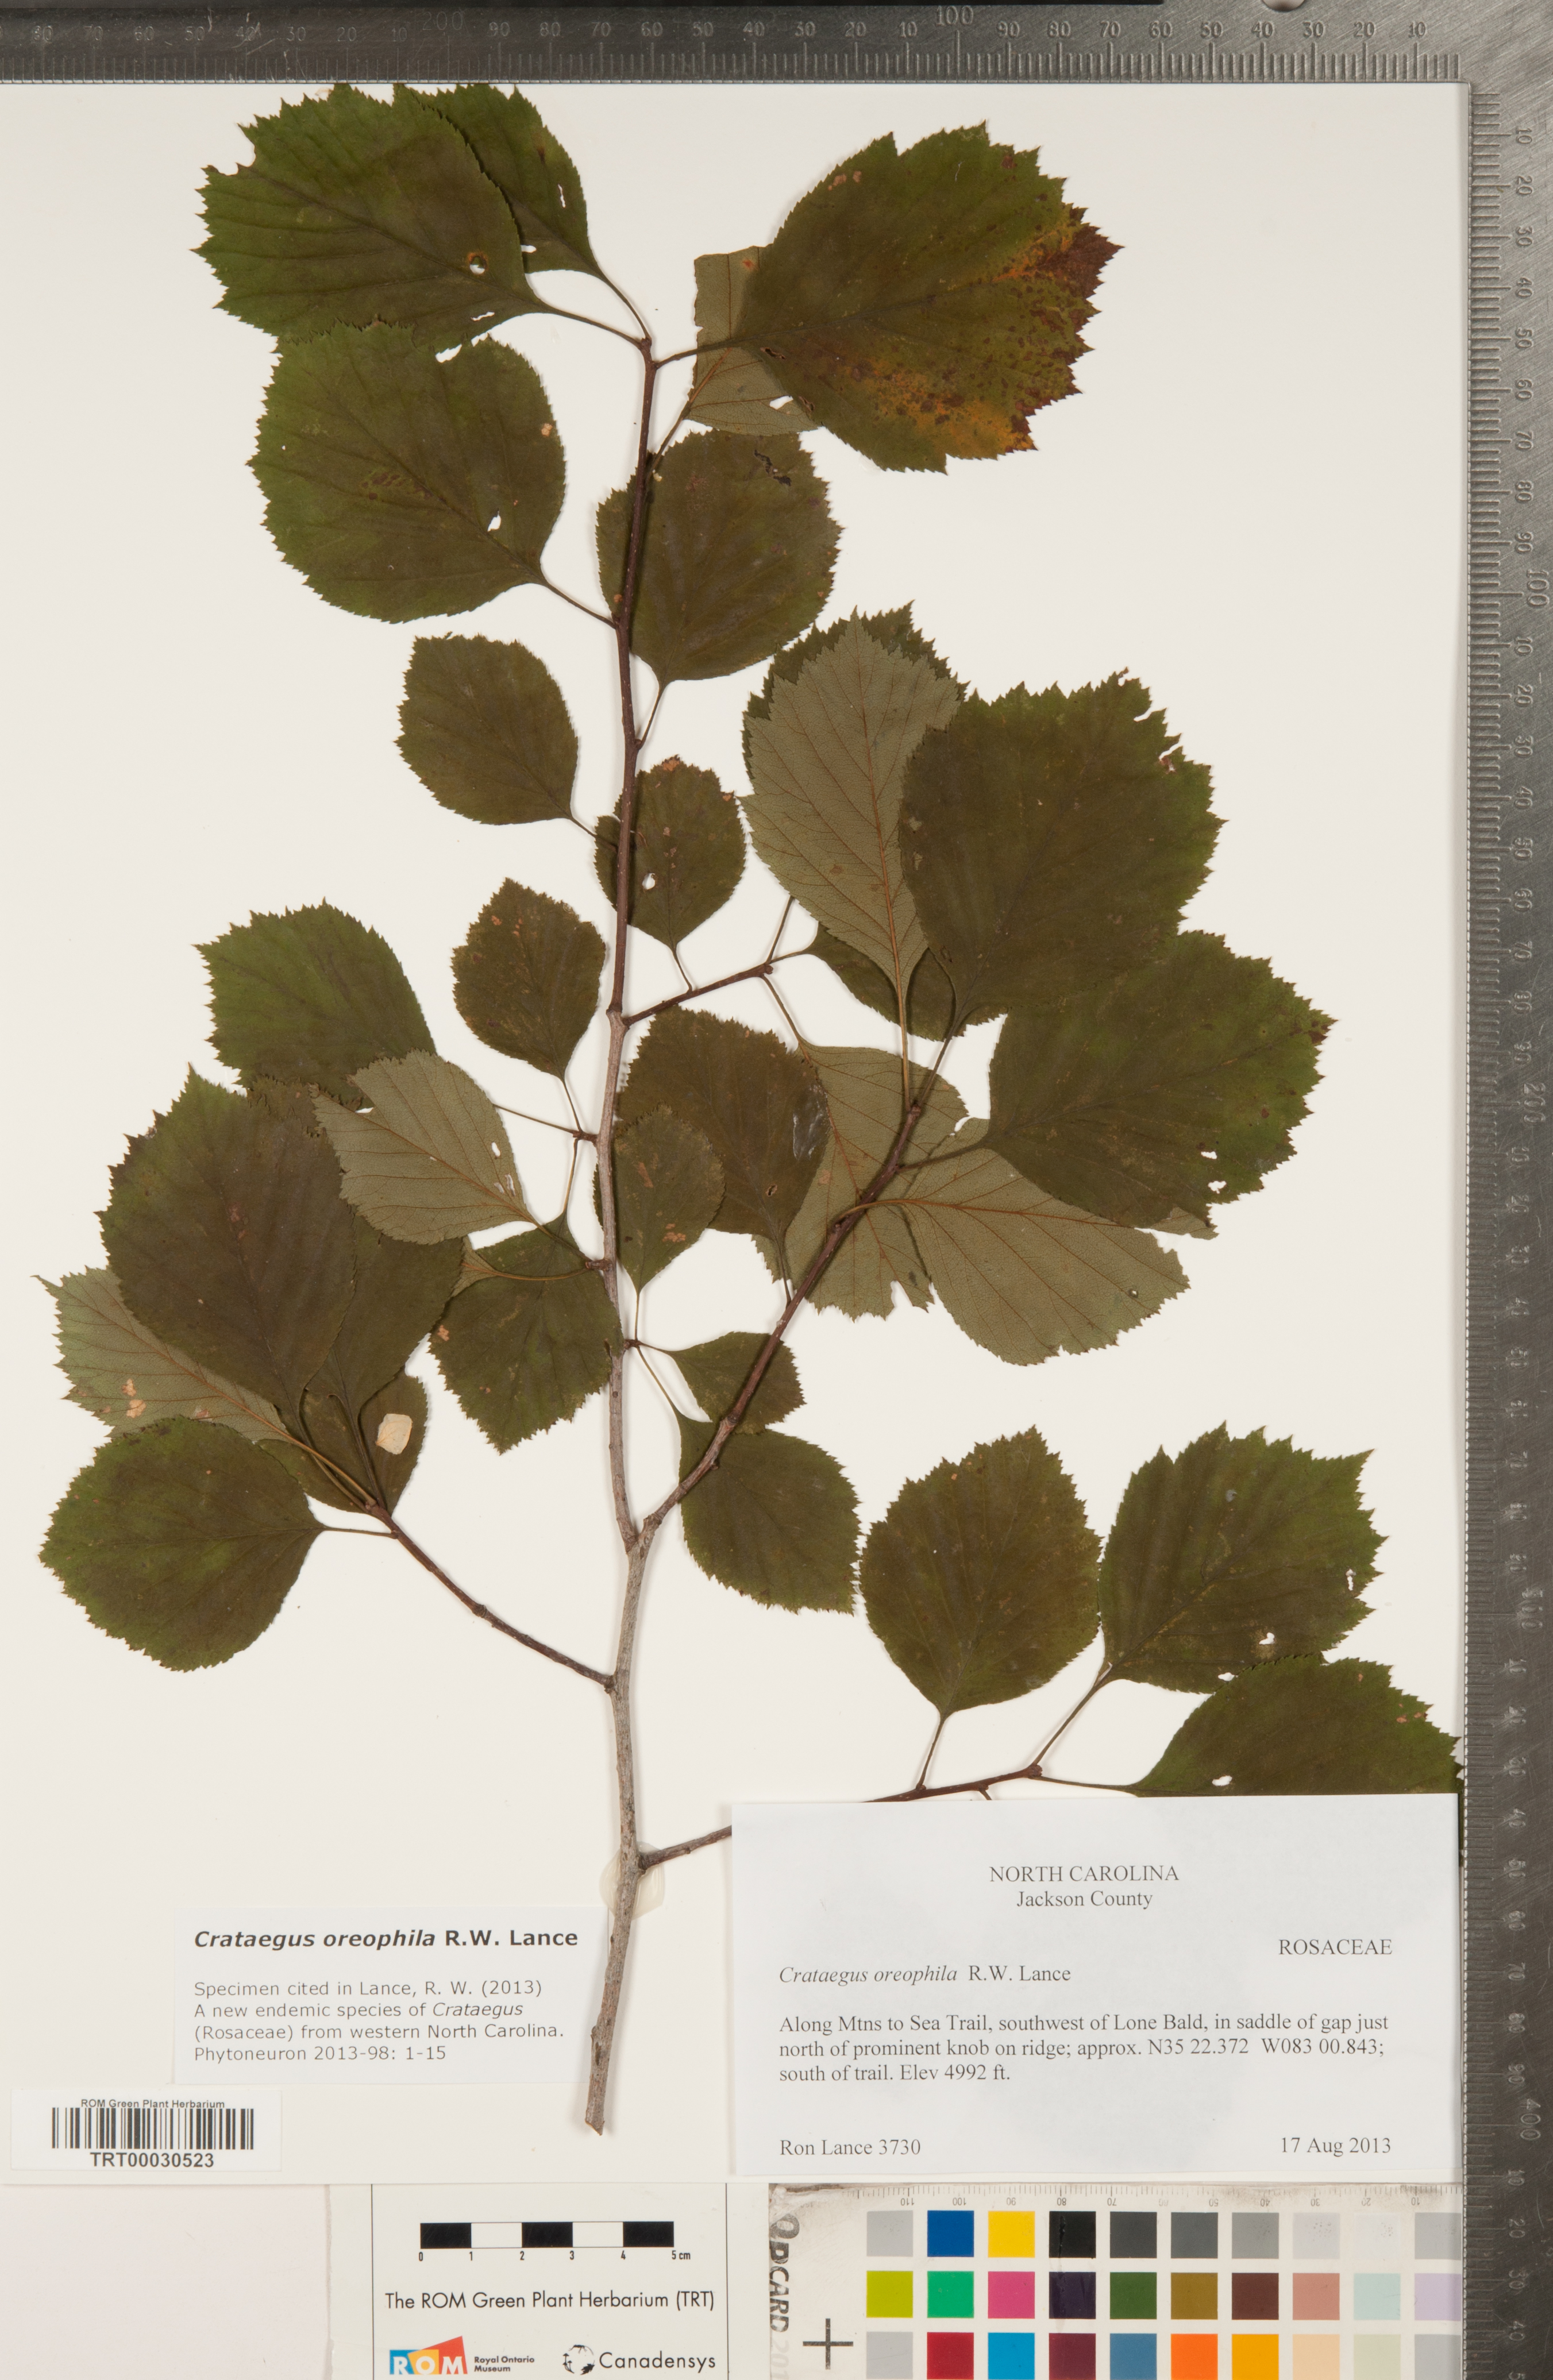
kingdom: Plantae
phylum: Tracheophyta
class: Magnoliopsida
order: Rosales
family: Rosaceae
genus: Crataegus
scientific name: Crataegus oreophila
